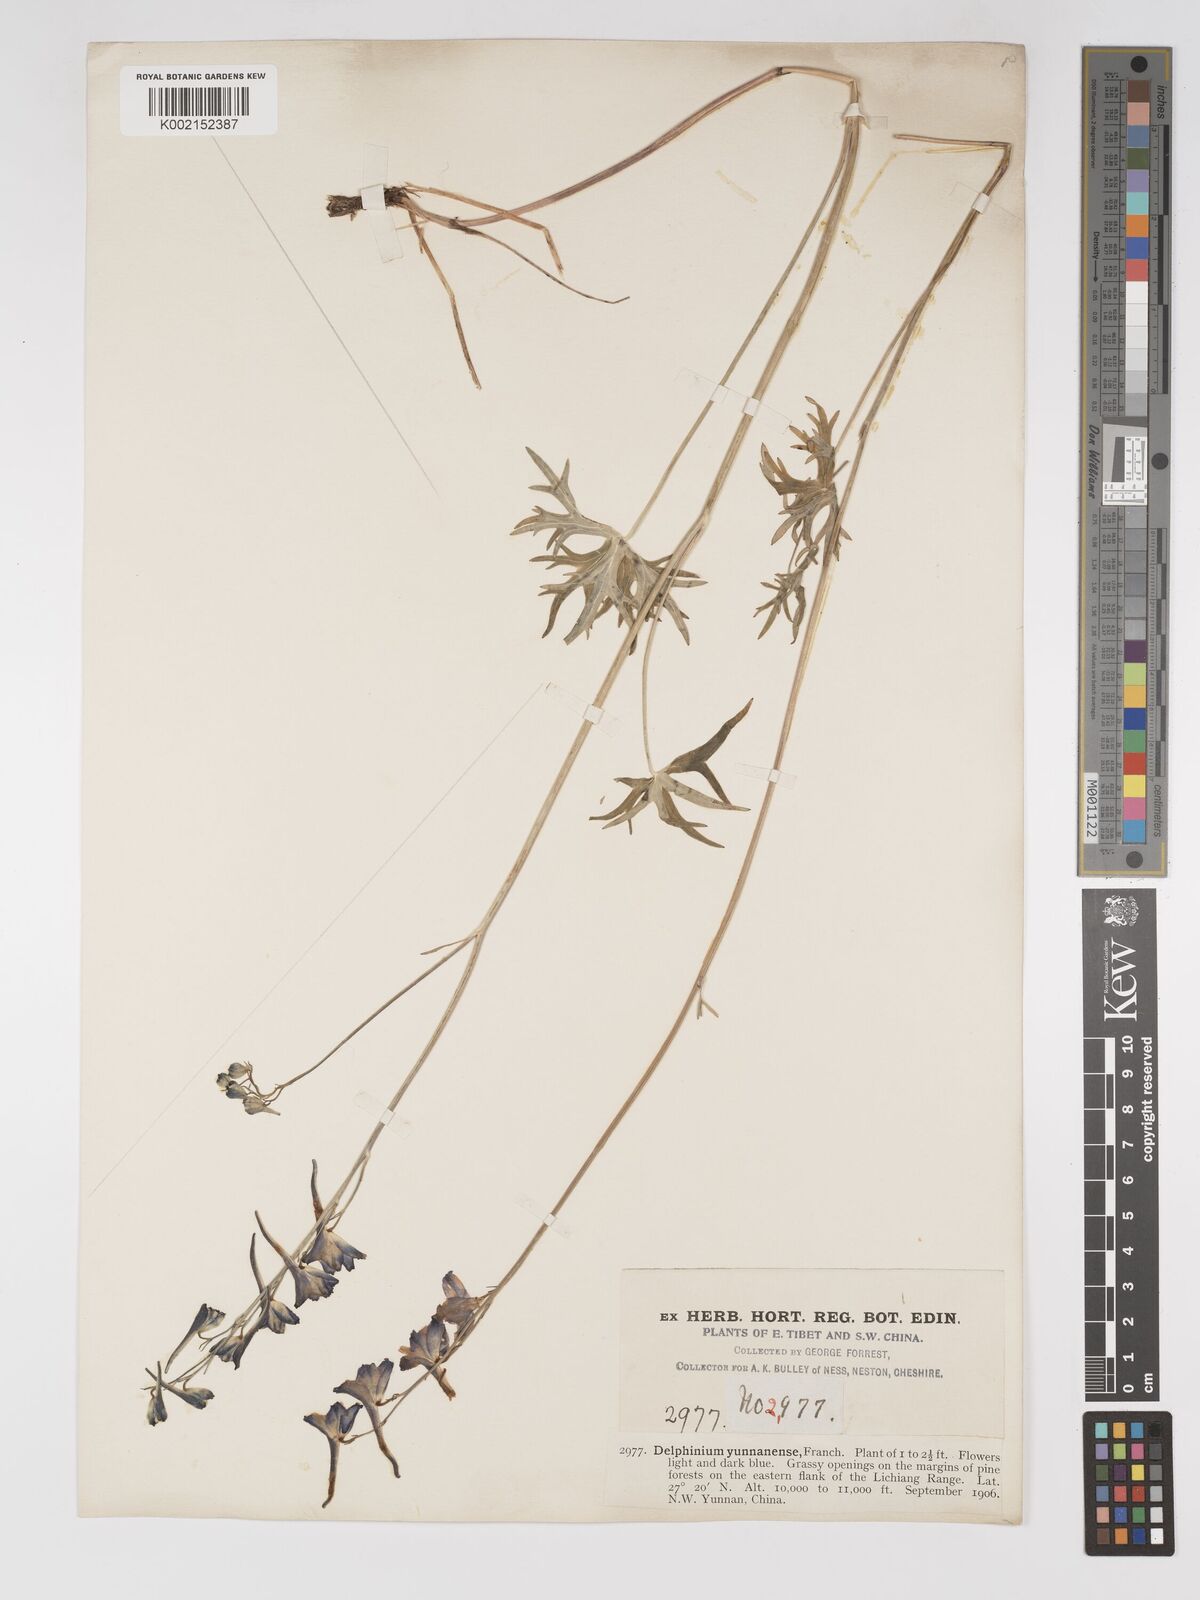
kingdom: Plantae
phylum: Tracheophyta
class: Magnoliopsida
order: Ranunculales
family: Ranunculaceae
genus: Delphinium
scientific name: Delphinium yunnanense
